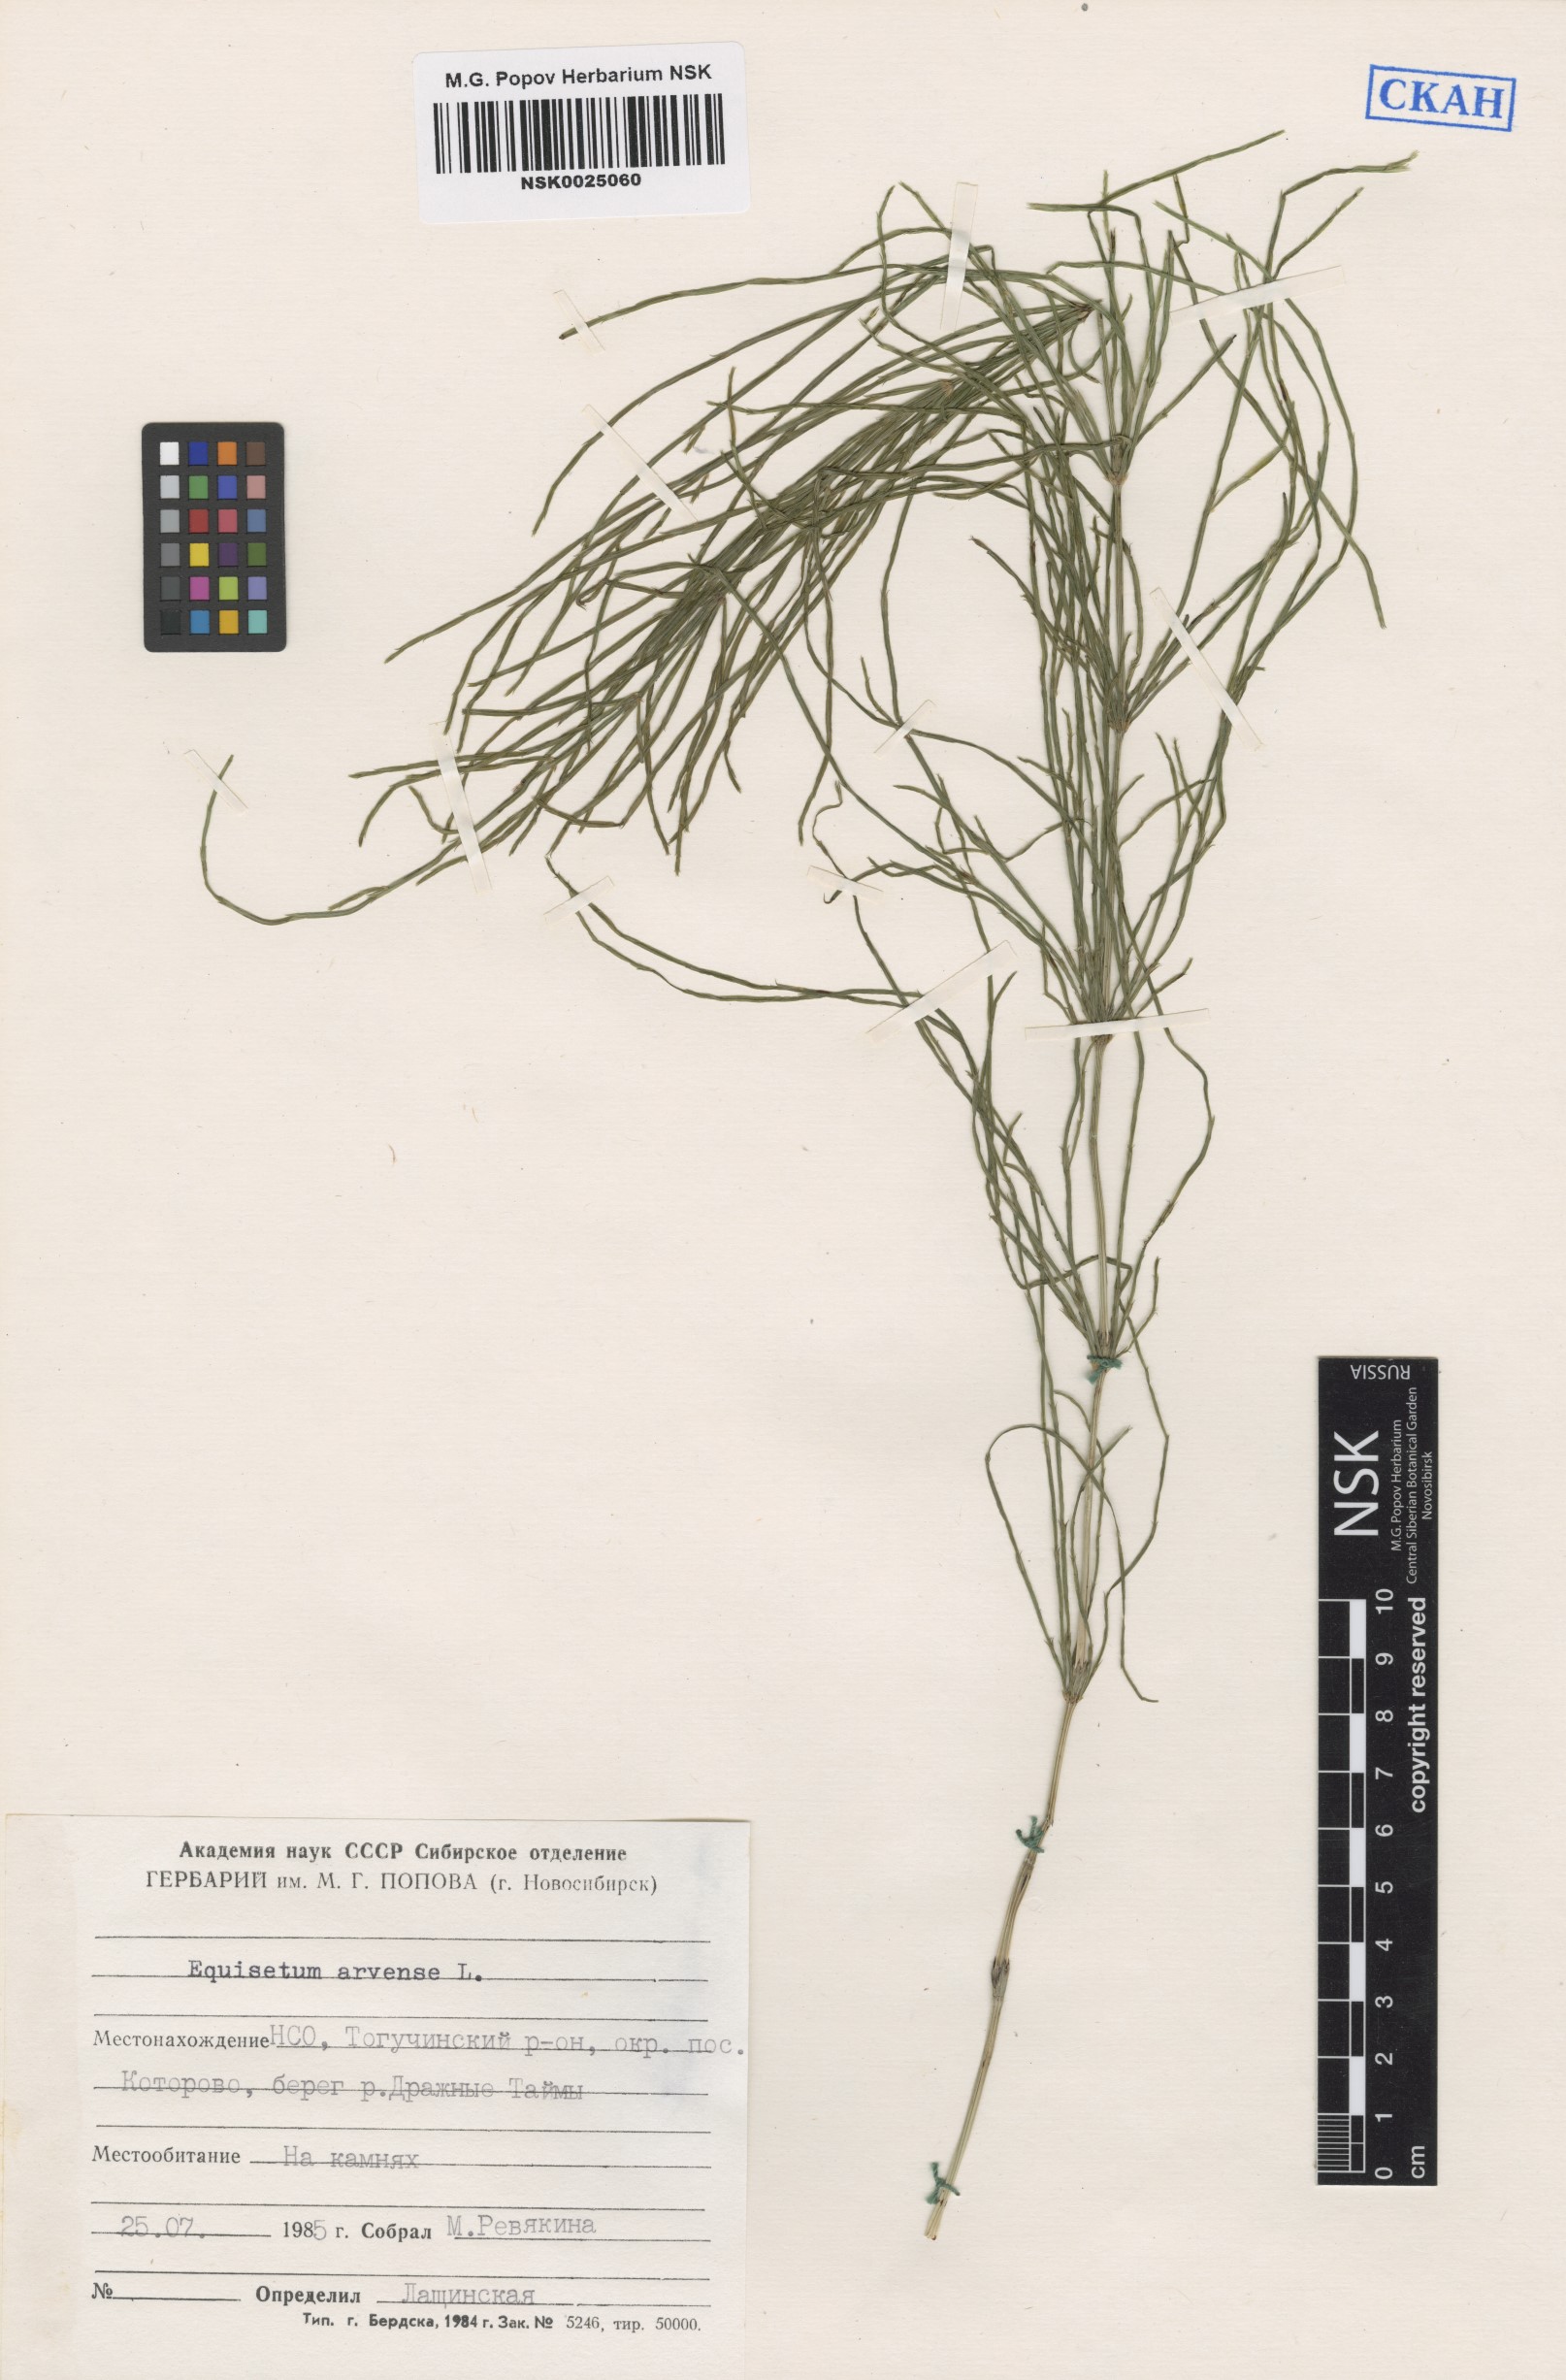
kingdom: Plantae
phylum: Tracheophyta
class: Polypodiopsida
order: Equisetales
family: Equisetaceae
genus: Equisetum
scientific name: Equisetum arvense
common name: Field horsetail
